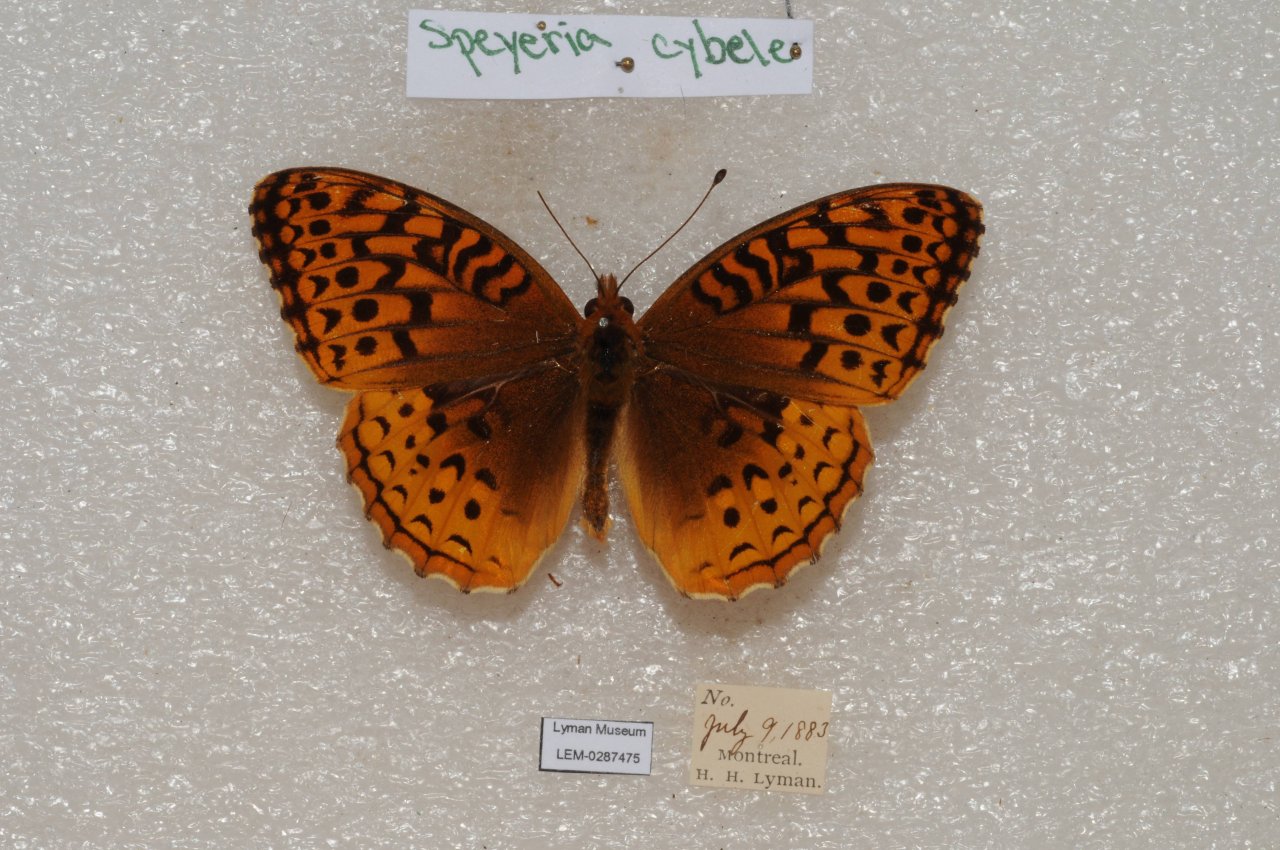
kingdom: Animalia
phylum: Arthropoda
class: Insecta
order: Lepidoptera
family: Nymphalidae
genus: Speyeria
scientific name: Speyeria cybele
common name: Great Spangled Fritillary
